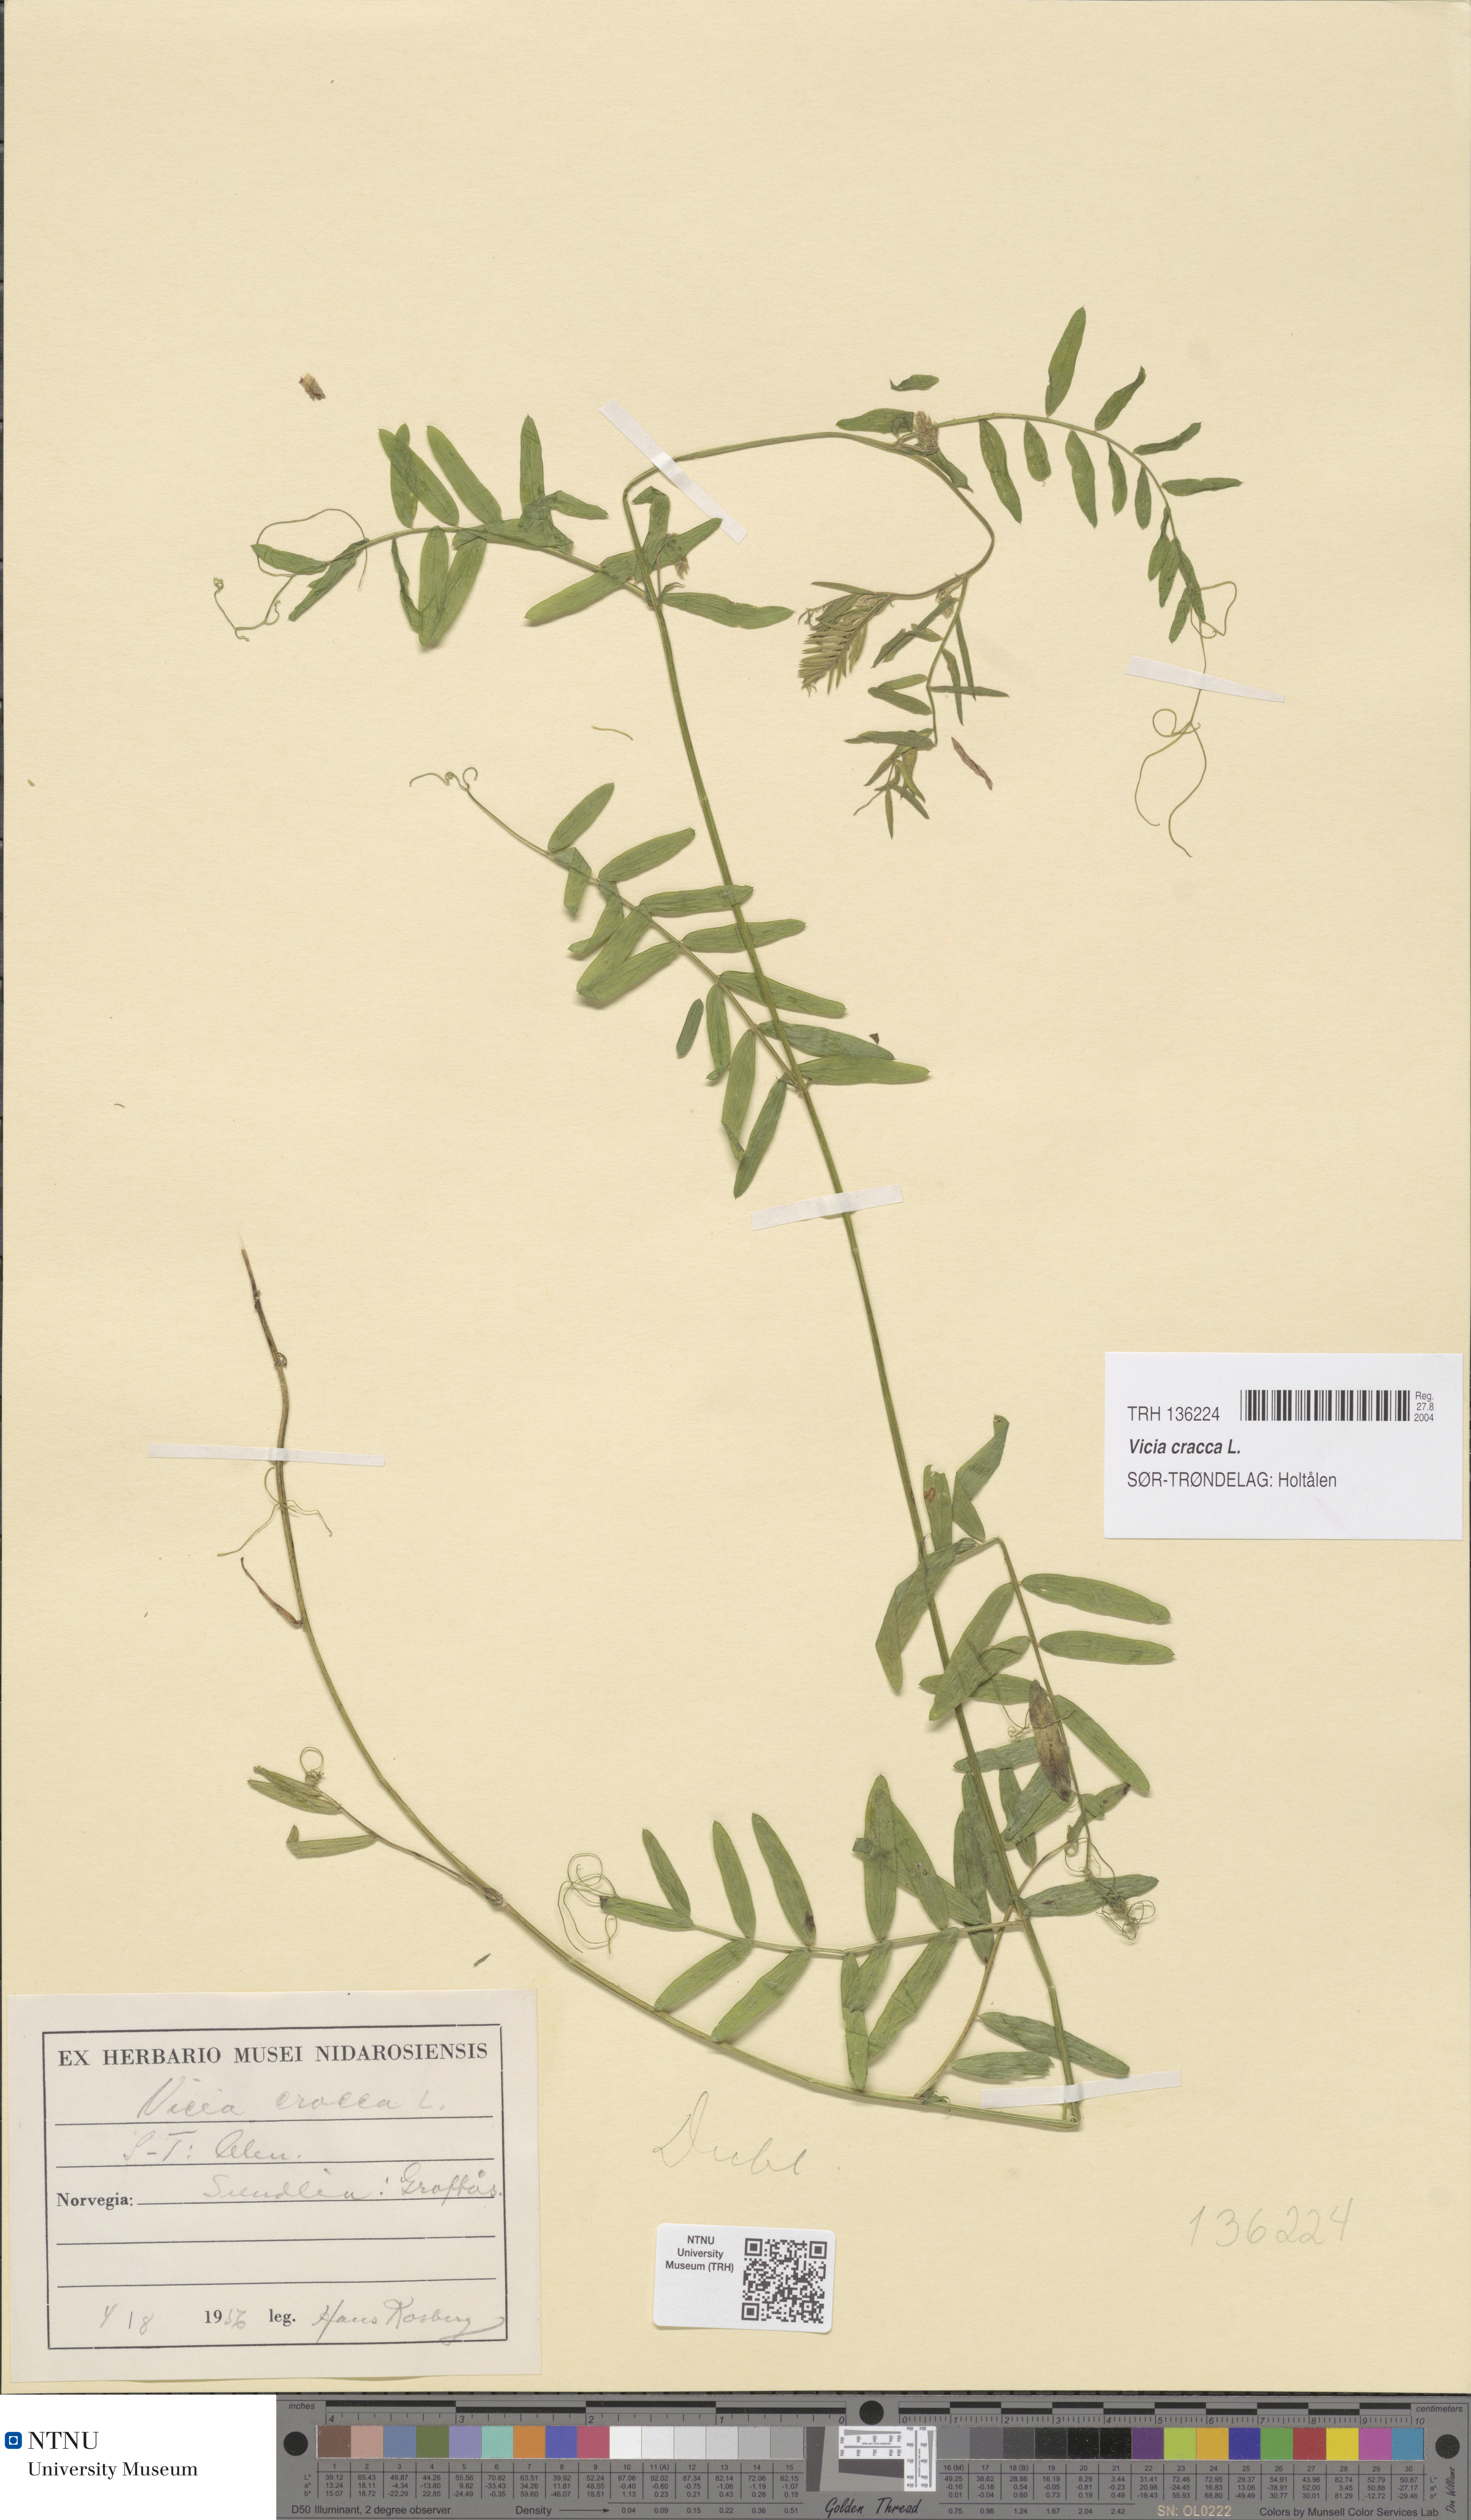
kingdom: Plantae
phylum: Tracheophyta
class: Magnoliopsida
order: Fabales
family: Fabaceae
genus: Vicia
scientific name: Vicia cracca
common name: Bird vetch
